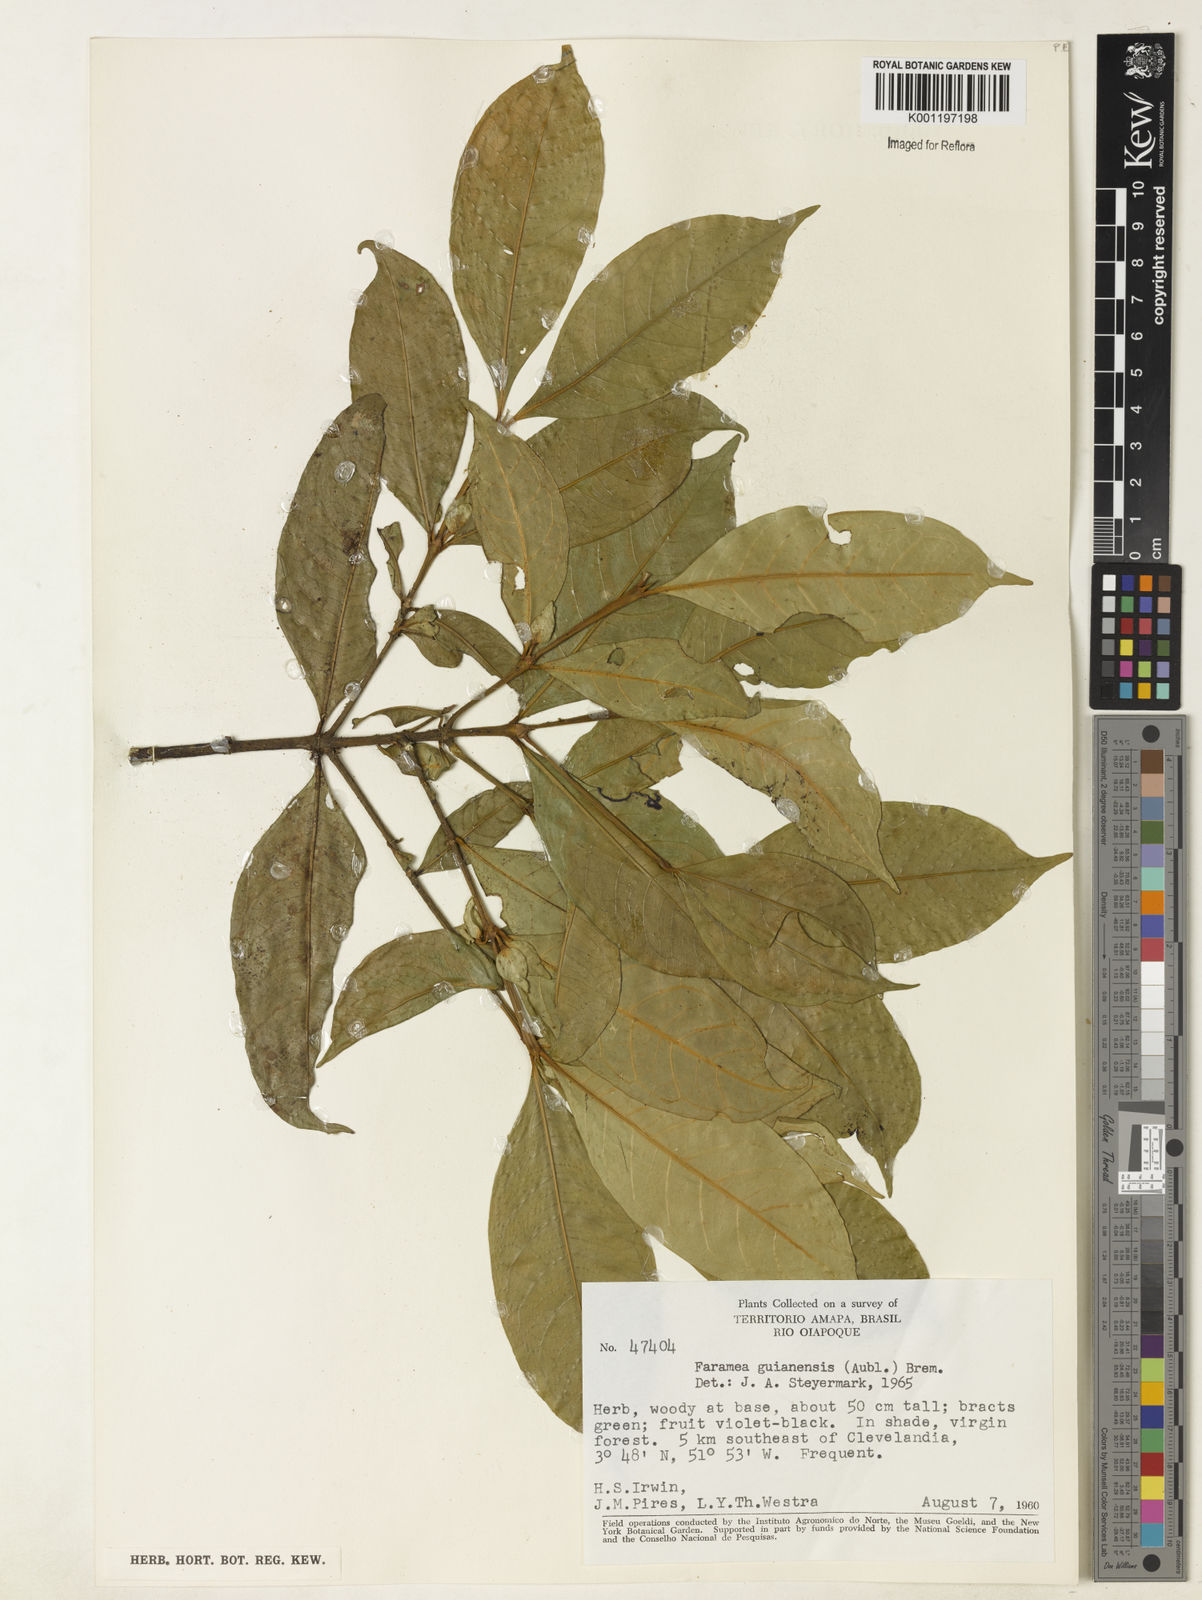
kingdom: Plantae
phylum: Tracheophyta
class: Magnoliopsida
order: Gentianales
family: Rubiaceae
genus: Faramea
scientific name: Faramea guianensis
